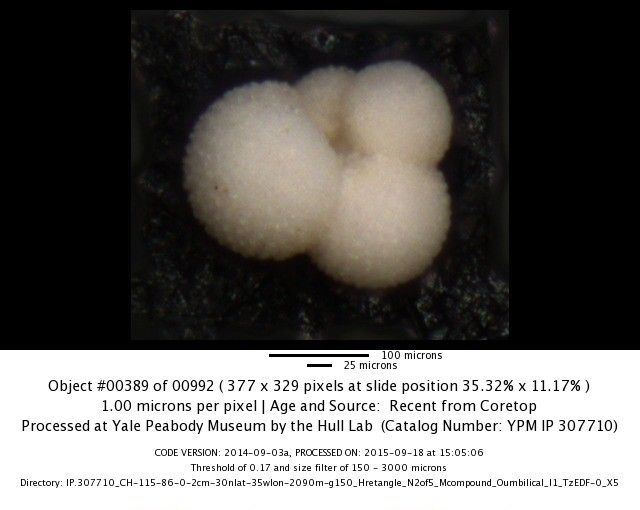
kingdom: Chromista
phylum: Foraminifera
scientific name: Foraminifera
